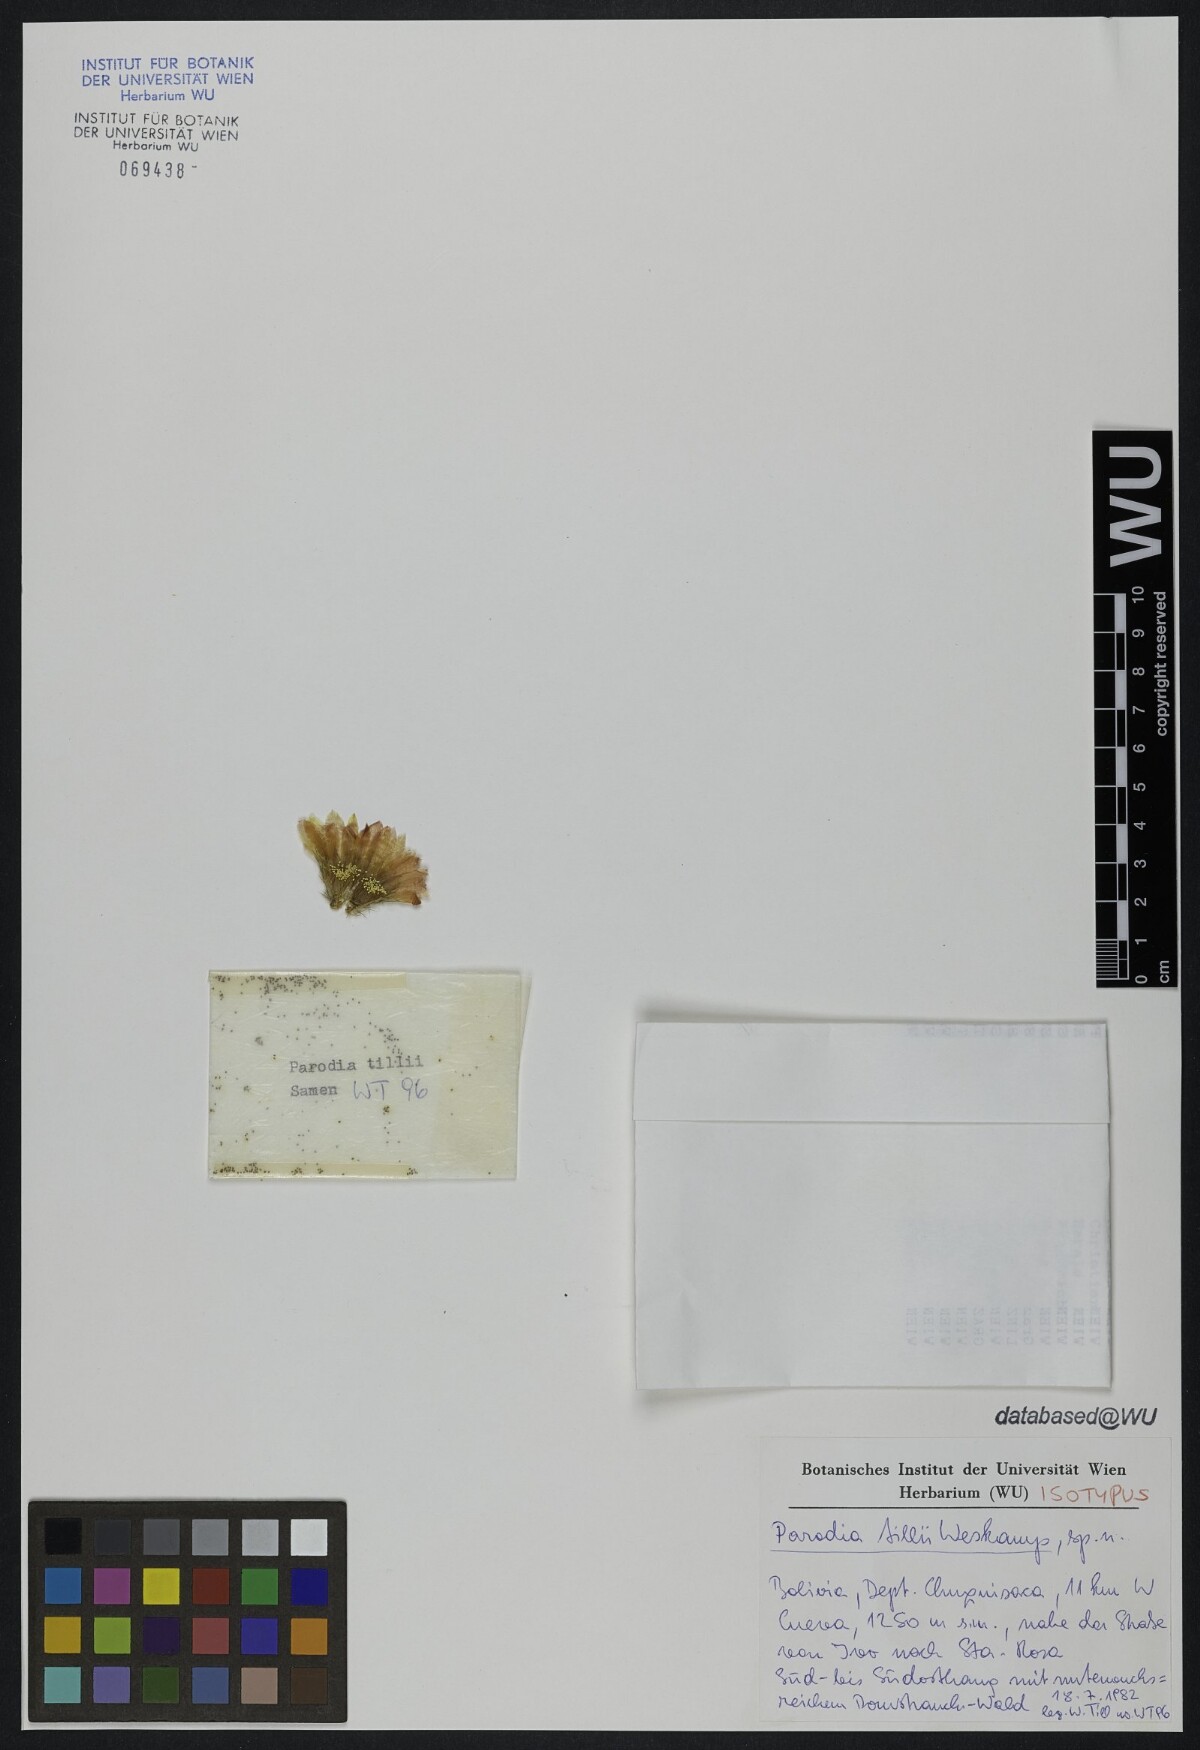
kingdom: Plantae
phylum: Tracheophyta
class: Magnoliopsida
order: Caryophyllales
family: Cactaceae
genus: Parodia
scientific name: Parodia formosa
